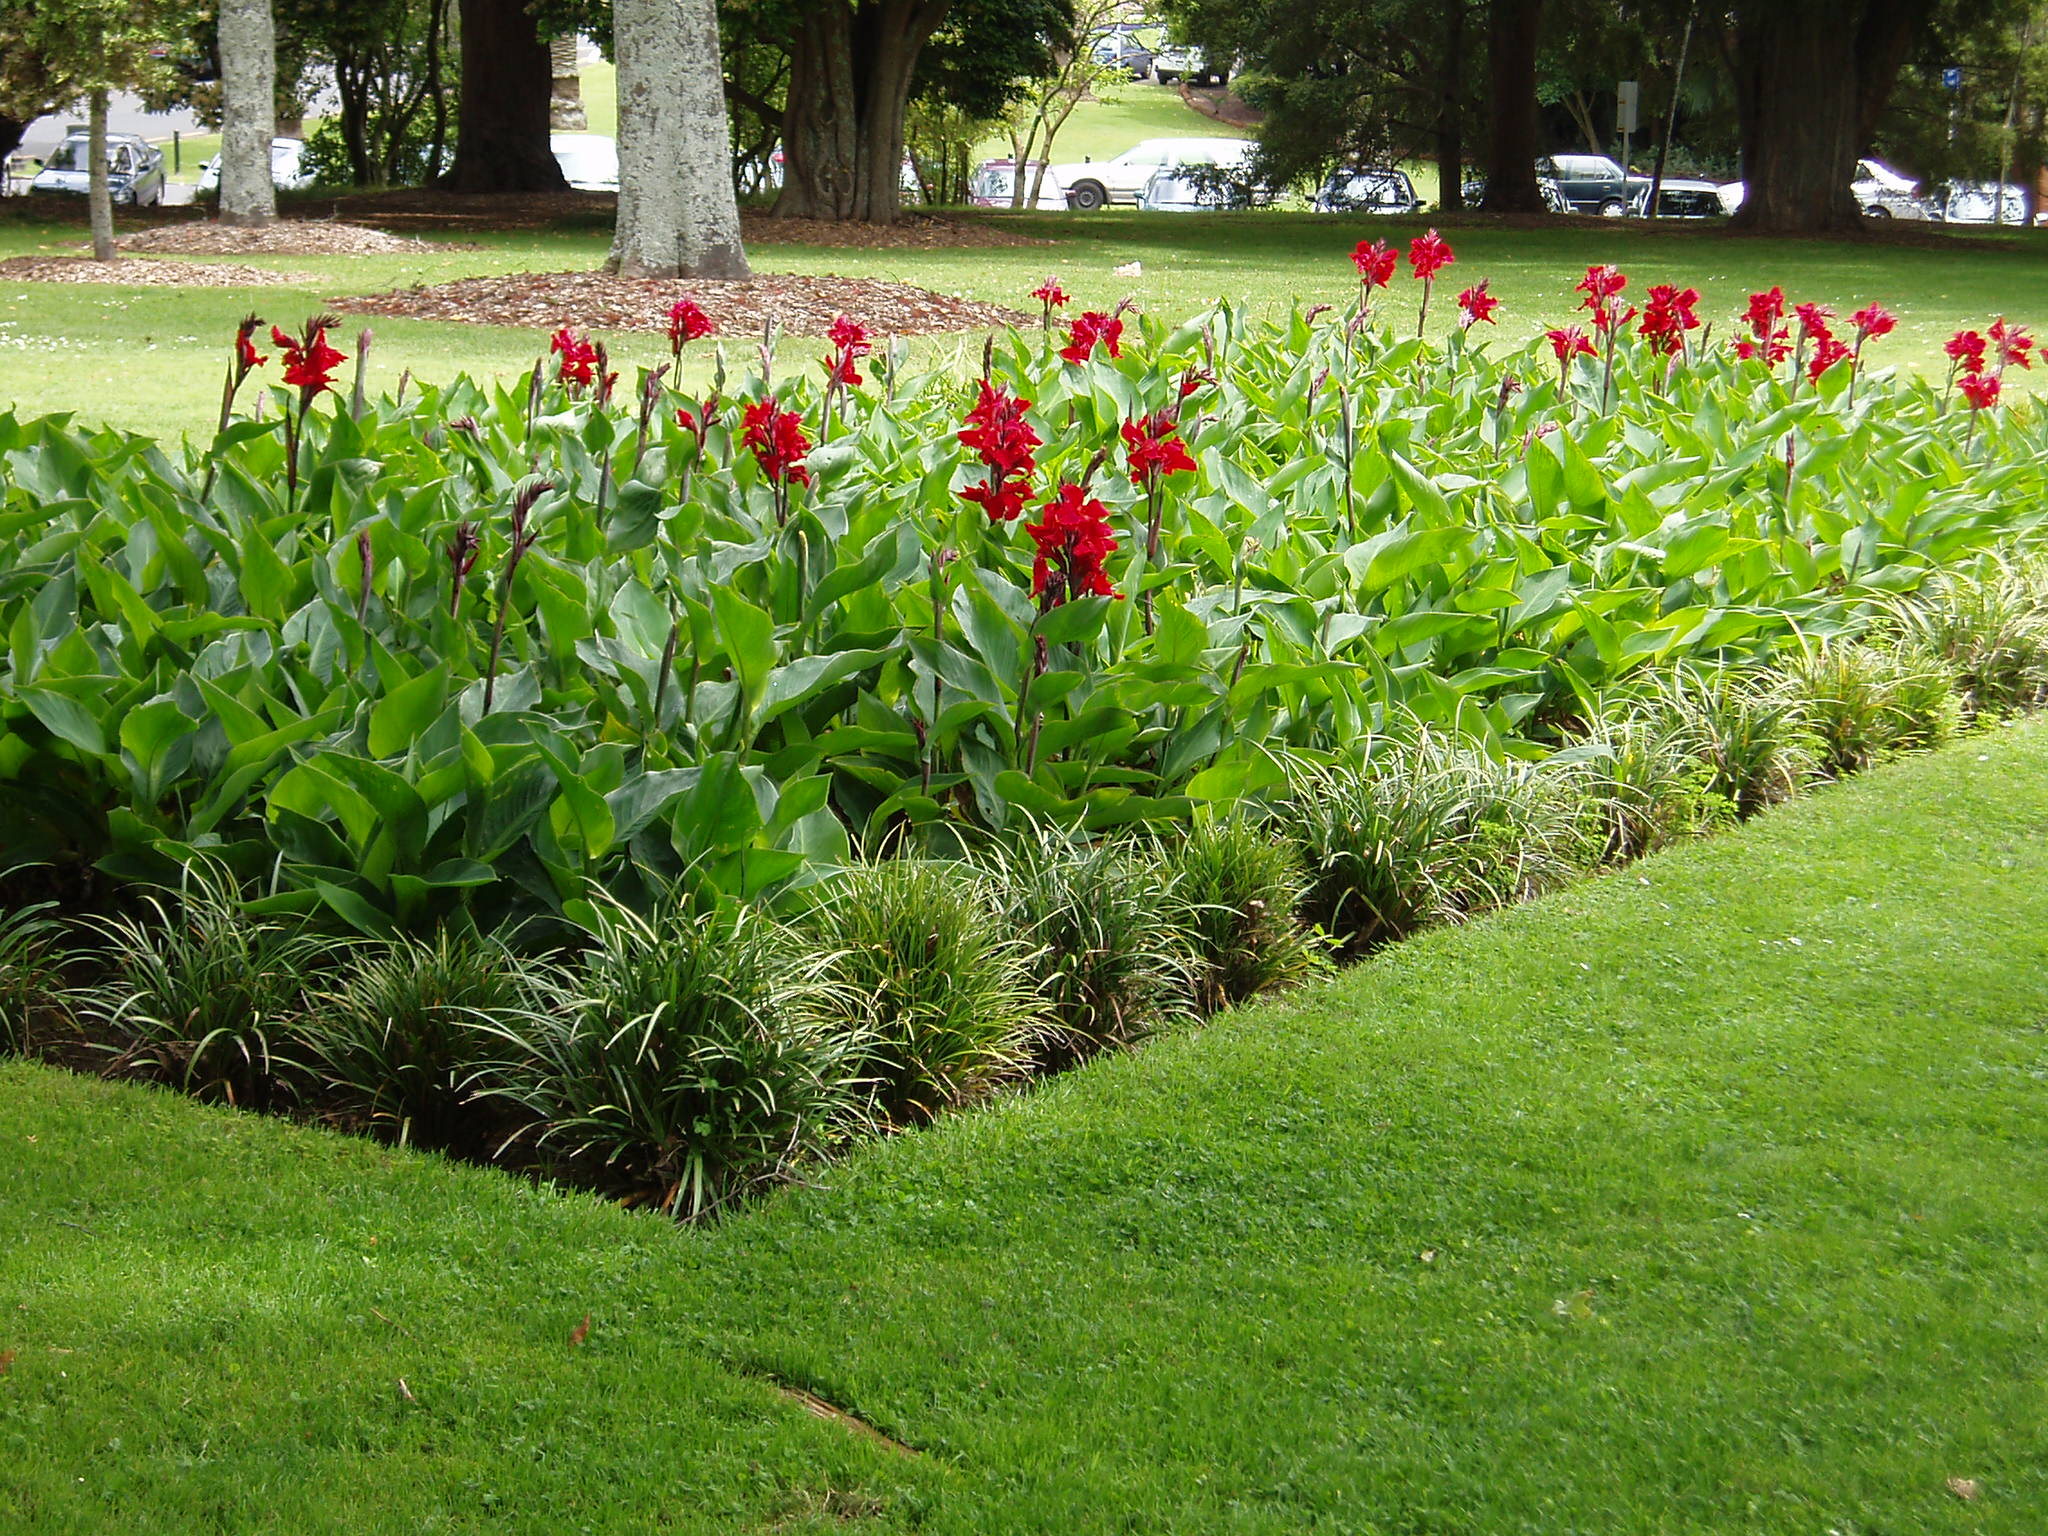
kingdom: Plantae
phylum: Tracheophyta
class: Liliopsida
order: Zingiberales
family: Cannaceae
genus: Canna
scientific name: Canna
